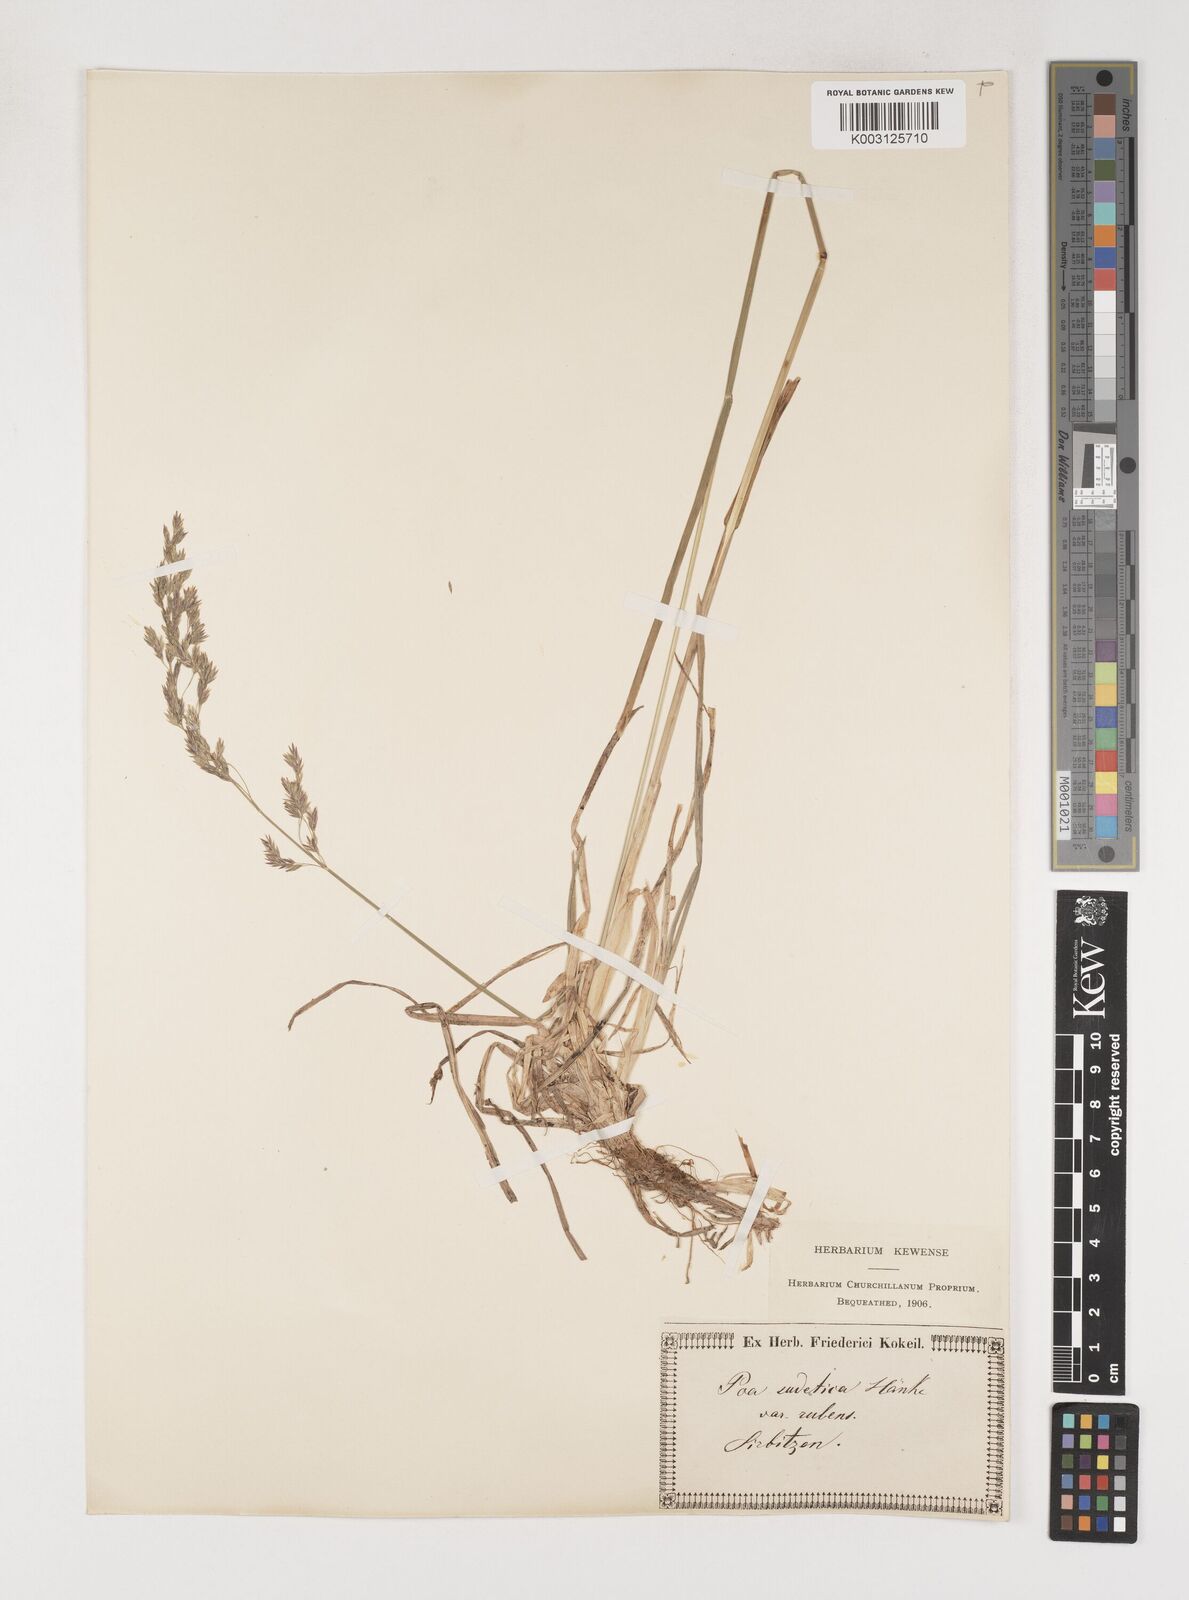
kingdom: Plantae
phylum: Tracheophyta
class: Liliopsida
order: Poales
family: Poaceae
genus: Poa
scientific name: Poa chaixii
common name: Broad-leaved meadow-grass
